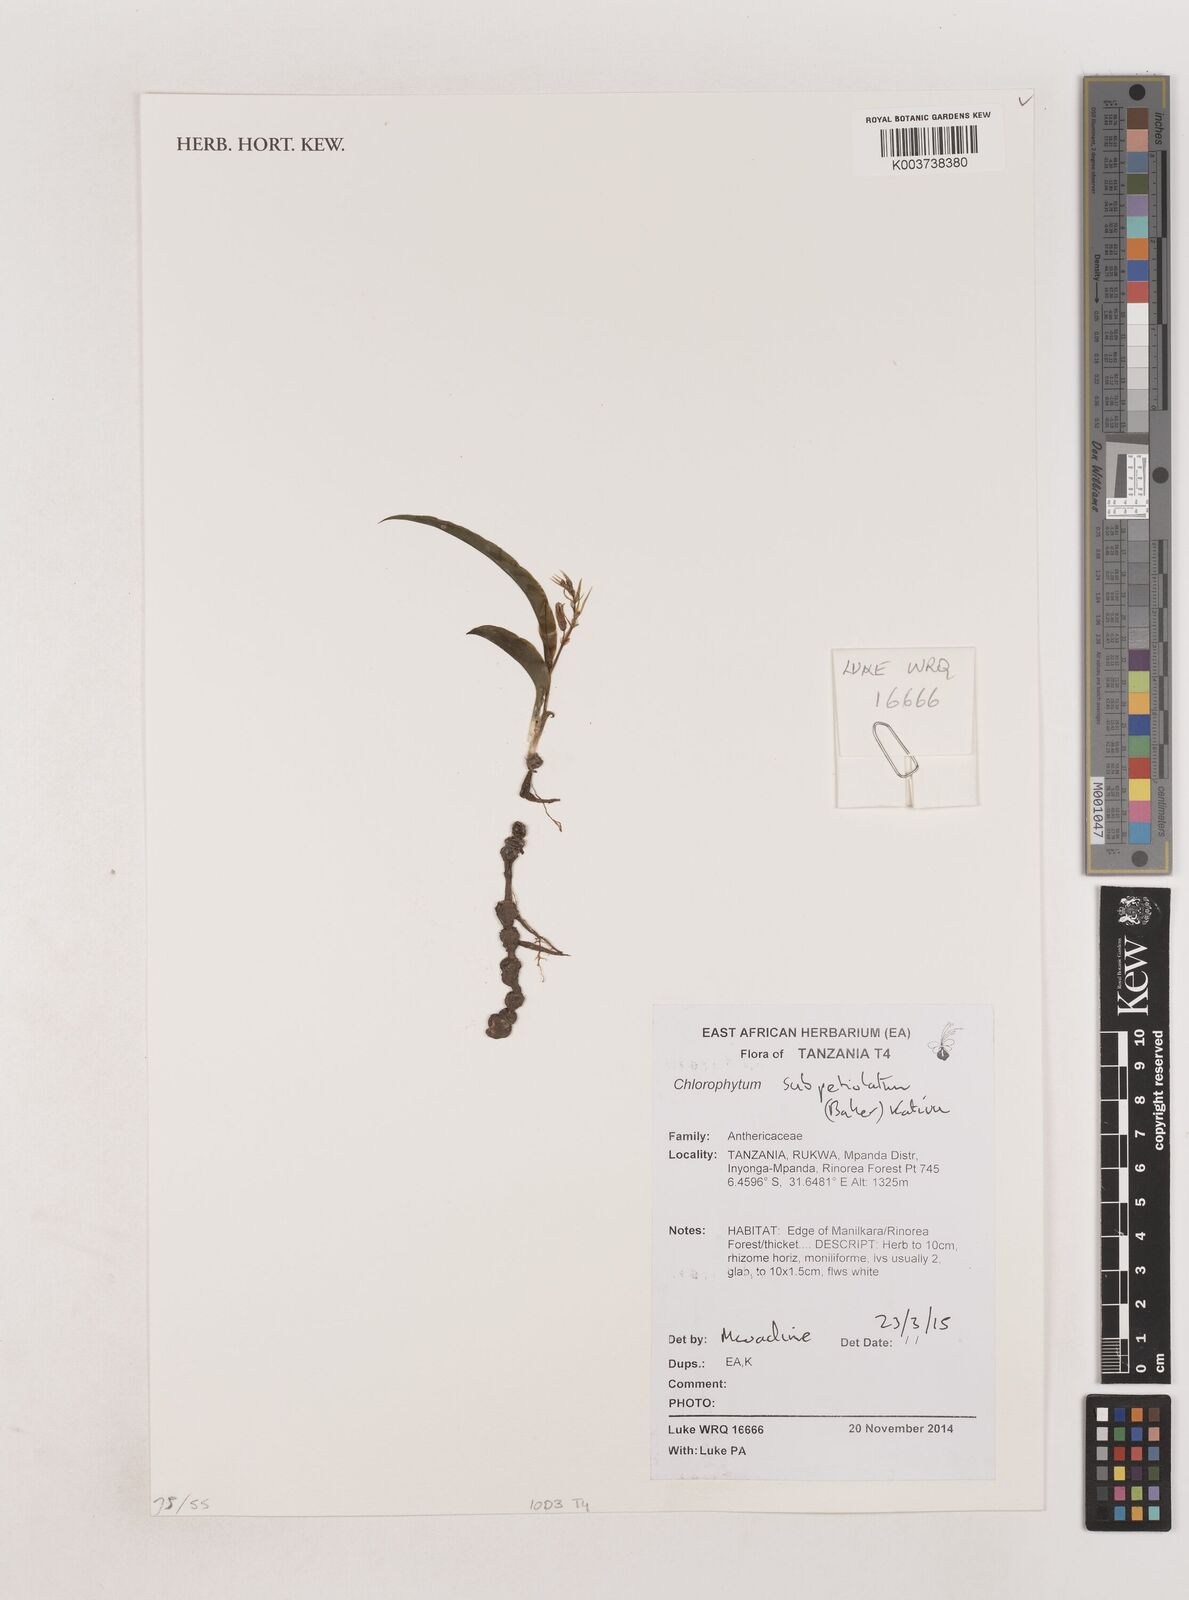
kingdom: Plantae
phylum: Tracheophyta
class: Liliopsida
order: Asparagales
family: Asparagaceae
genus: Chlorophytum
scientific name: Chlorophytum subpetiolatum
